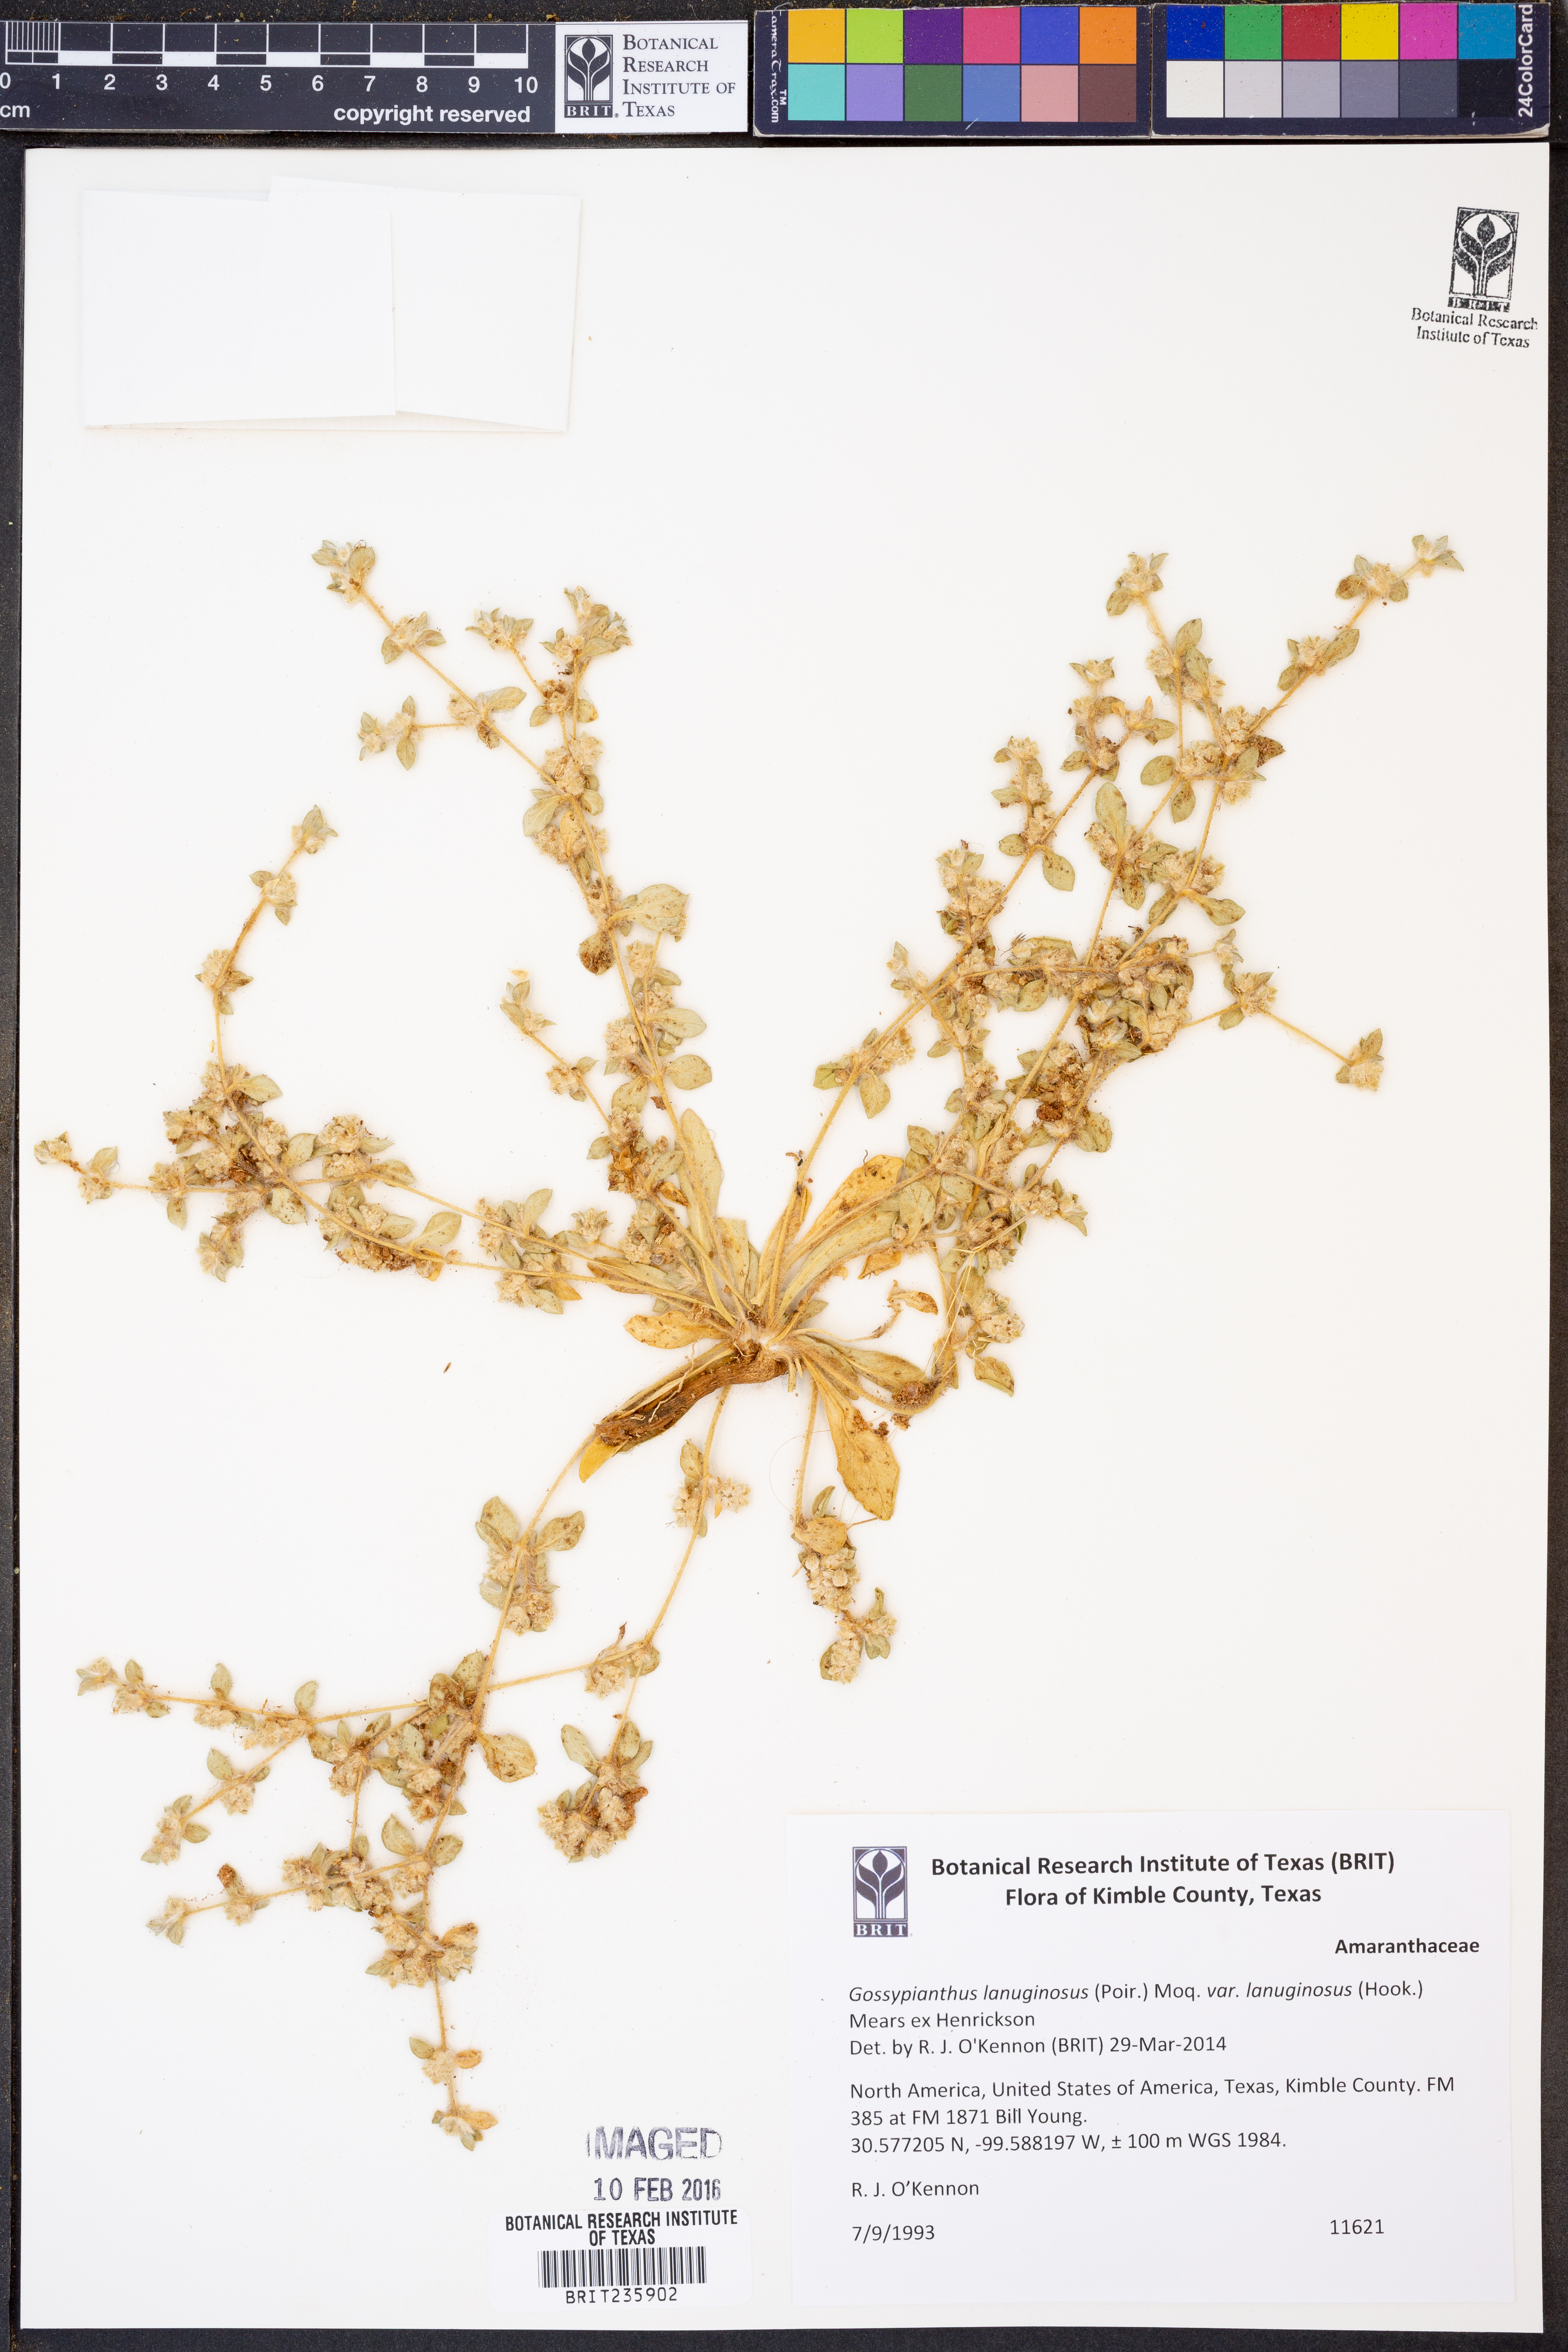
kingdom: Plantae
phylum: Tracheophyta
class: Magnoliopsida
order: Caryophyllales
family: Amaranthaceae
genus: Gomphrena
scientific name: Gomphrena lanuparonychioides
